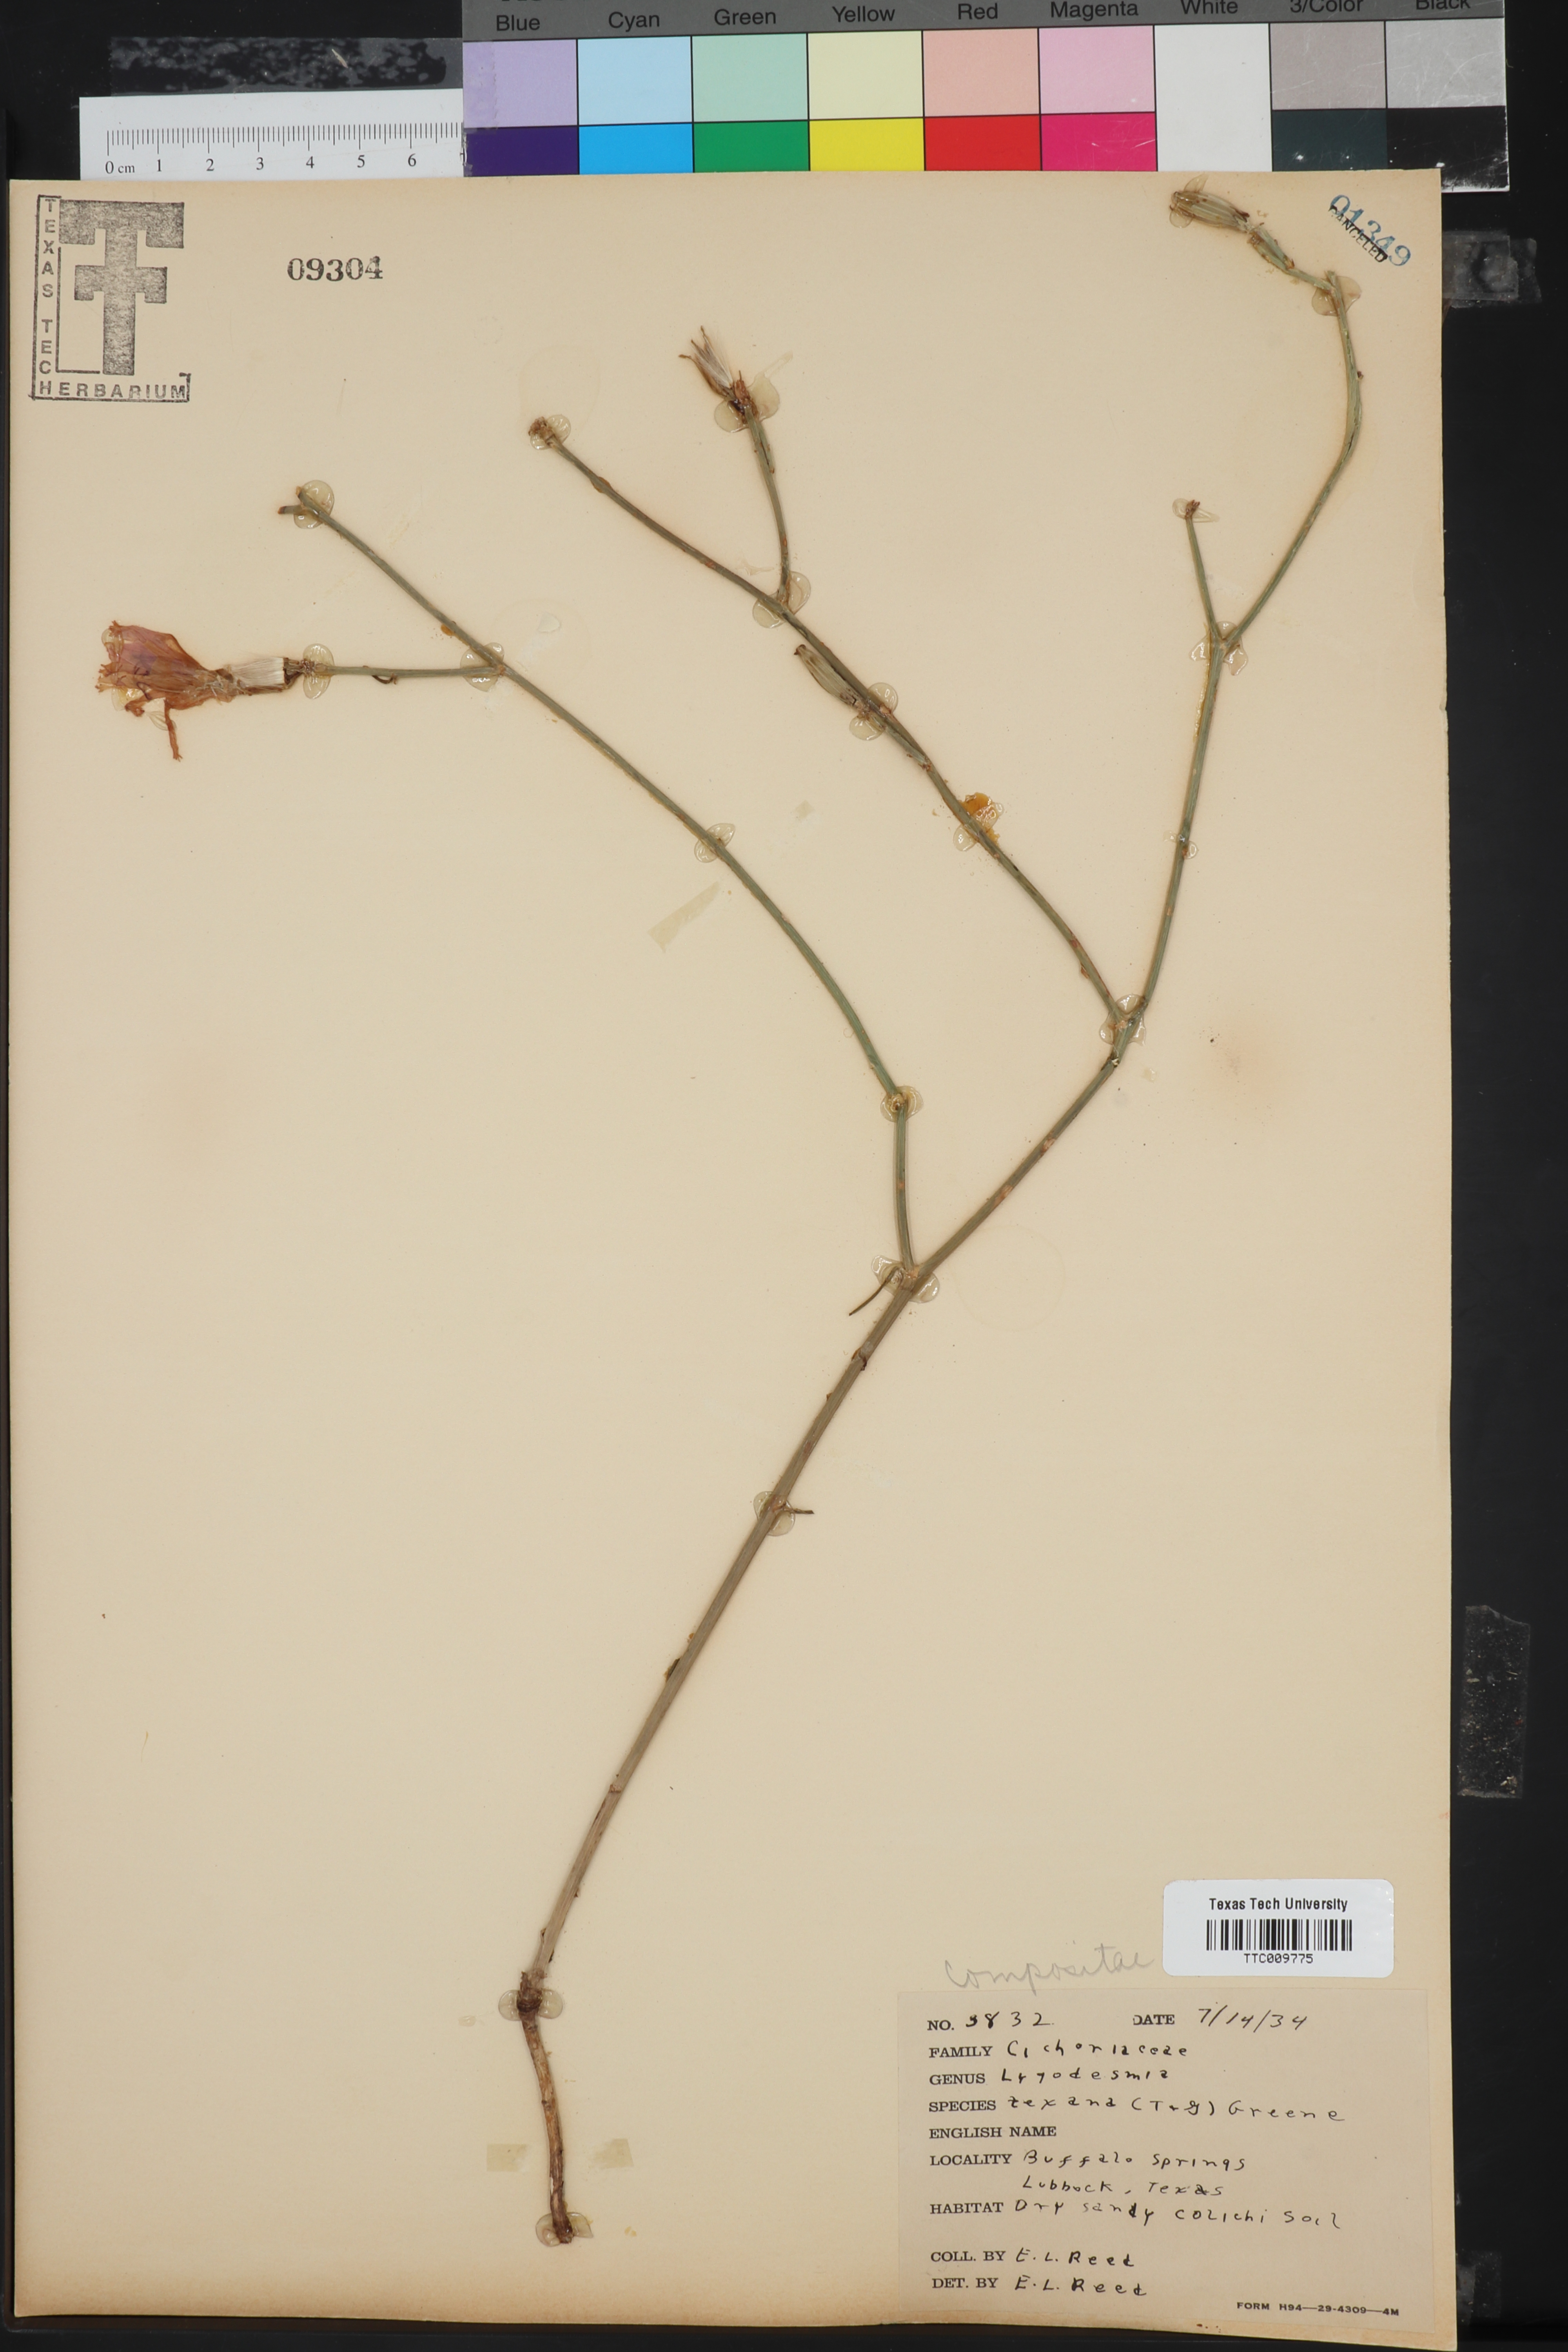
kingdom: Plantae
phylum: Tracheophyta
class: Magnoliopsida
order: Asterales
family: Asteraceae
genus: Lygodesmia
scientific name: Lygodesmia texana
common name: Texas skeleton-plant
